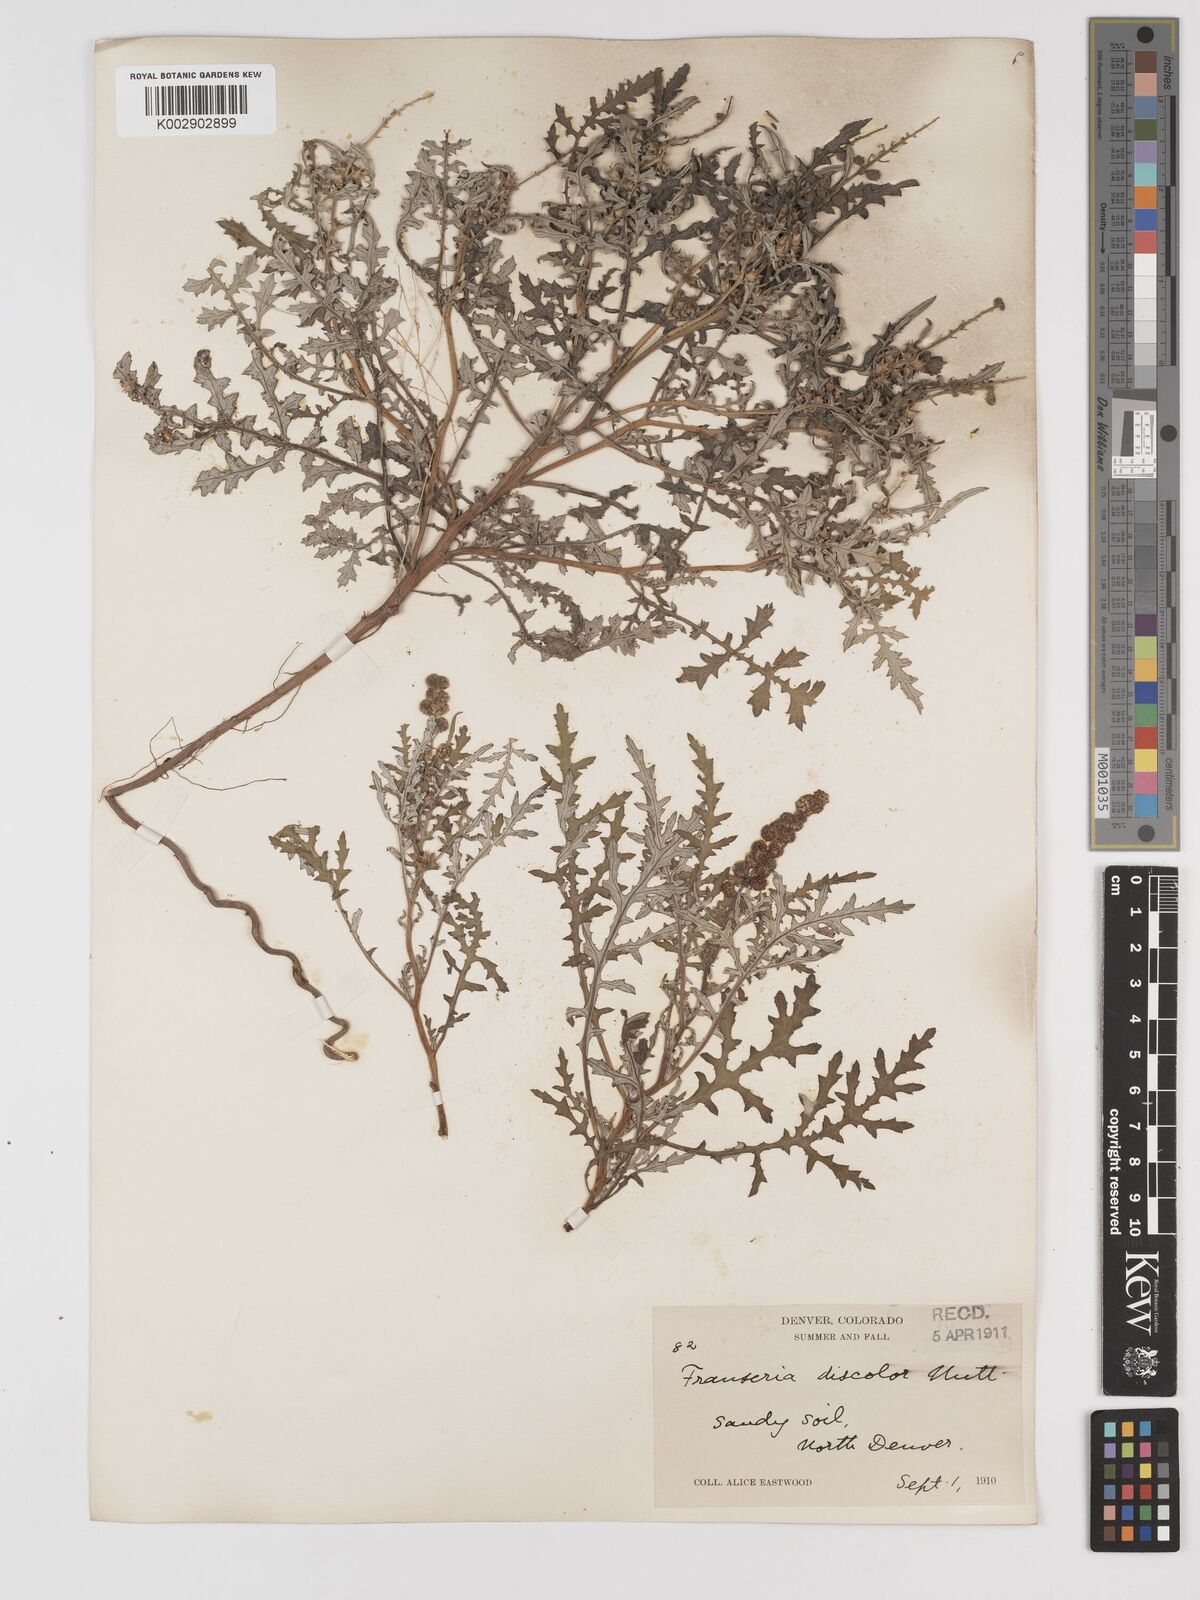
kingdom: Plantae
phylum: Tracheophyta
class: Magnoliopsida
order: Asterales
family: Asteraceae
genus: Ambrosia
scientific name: Ambrosia
